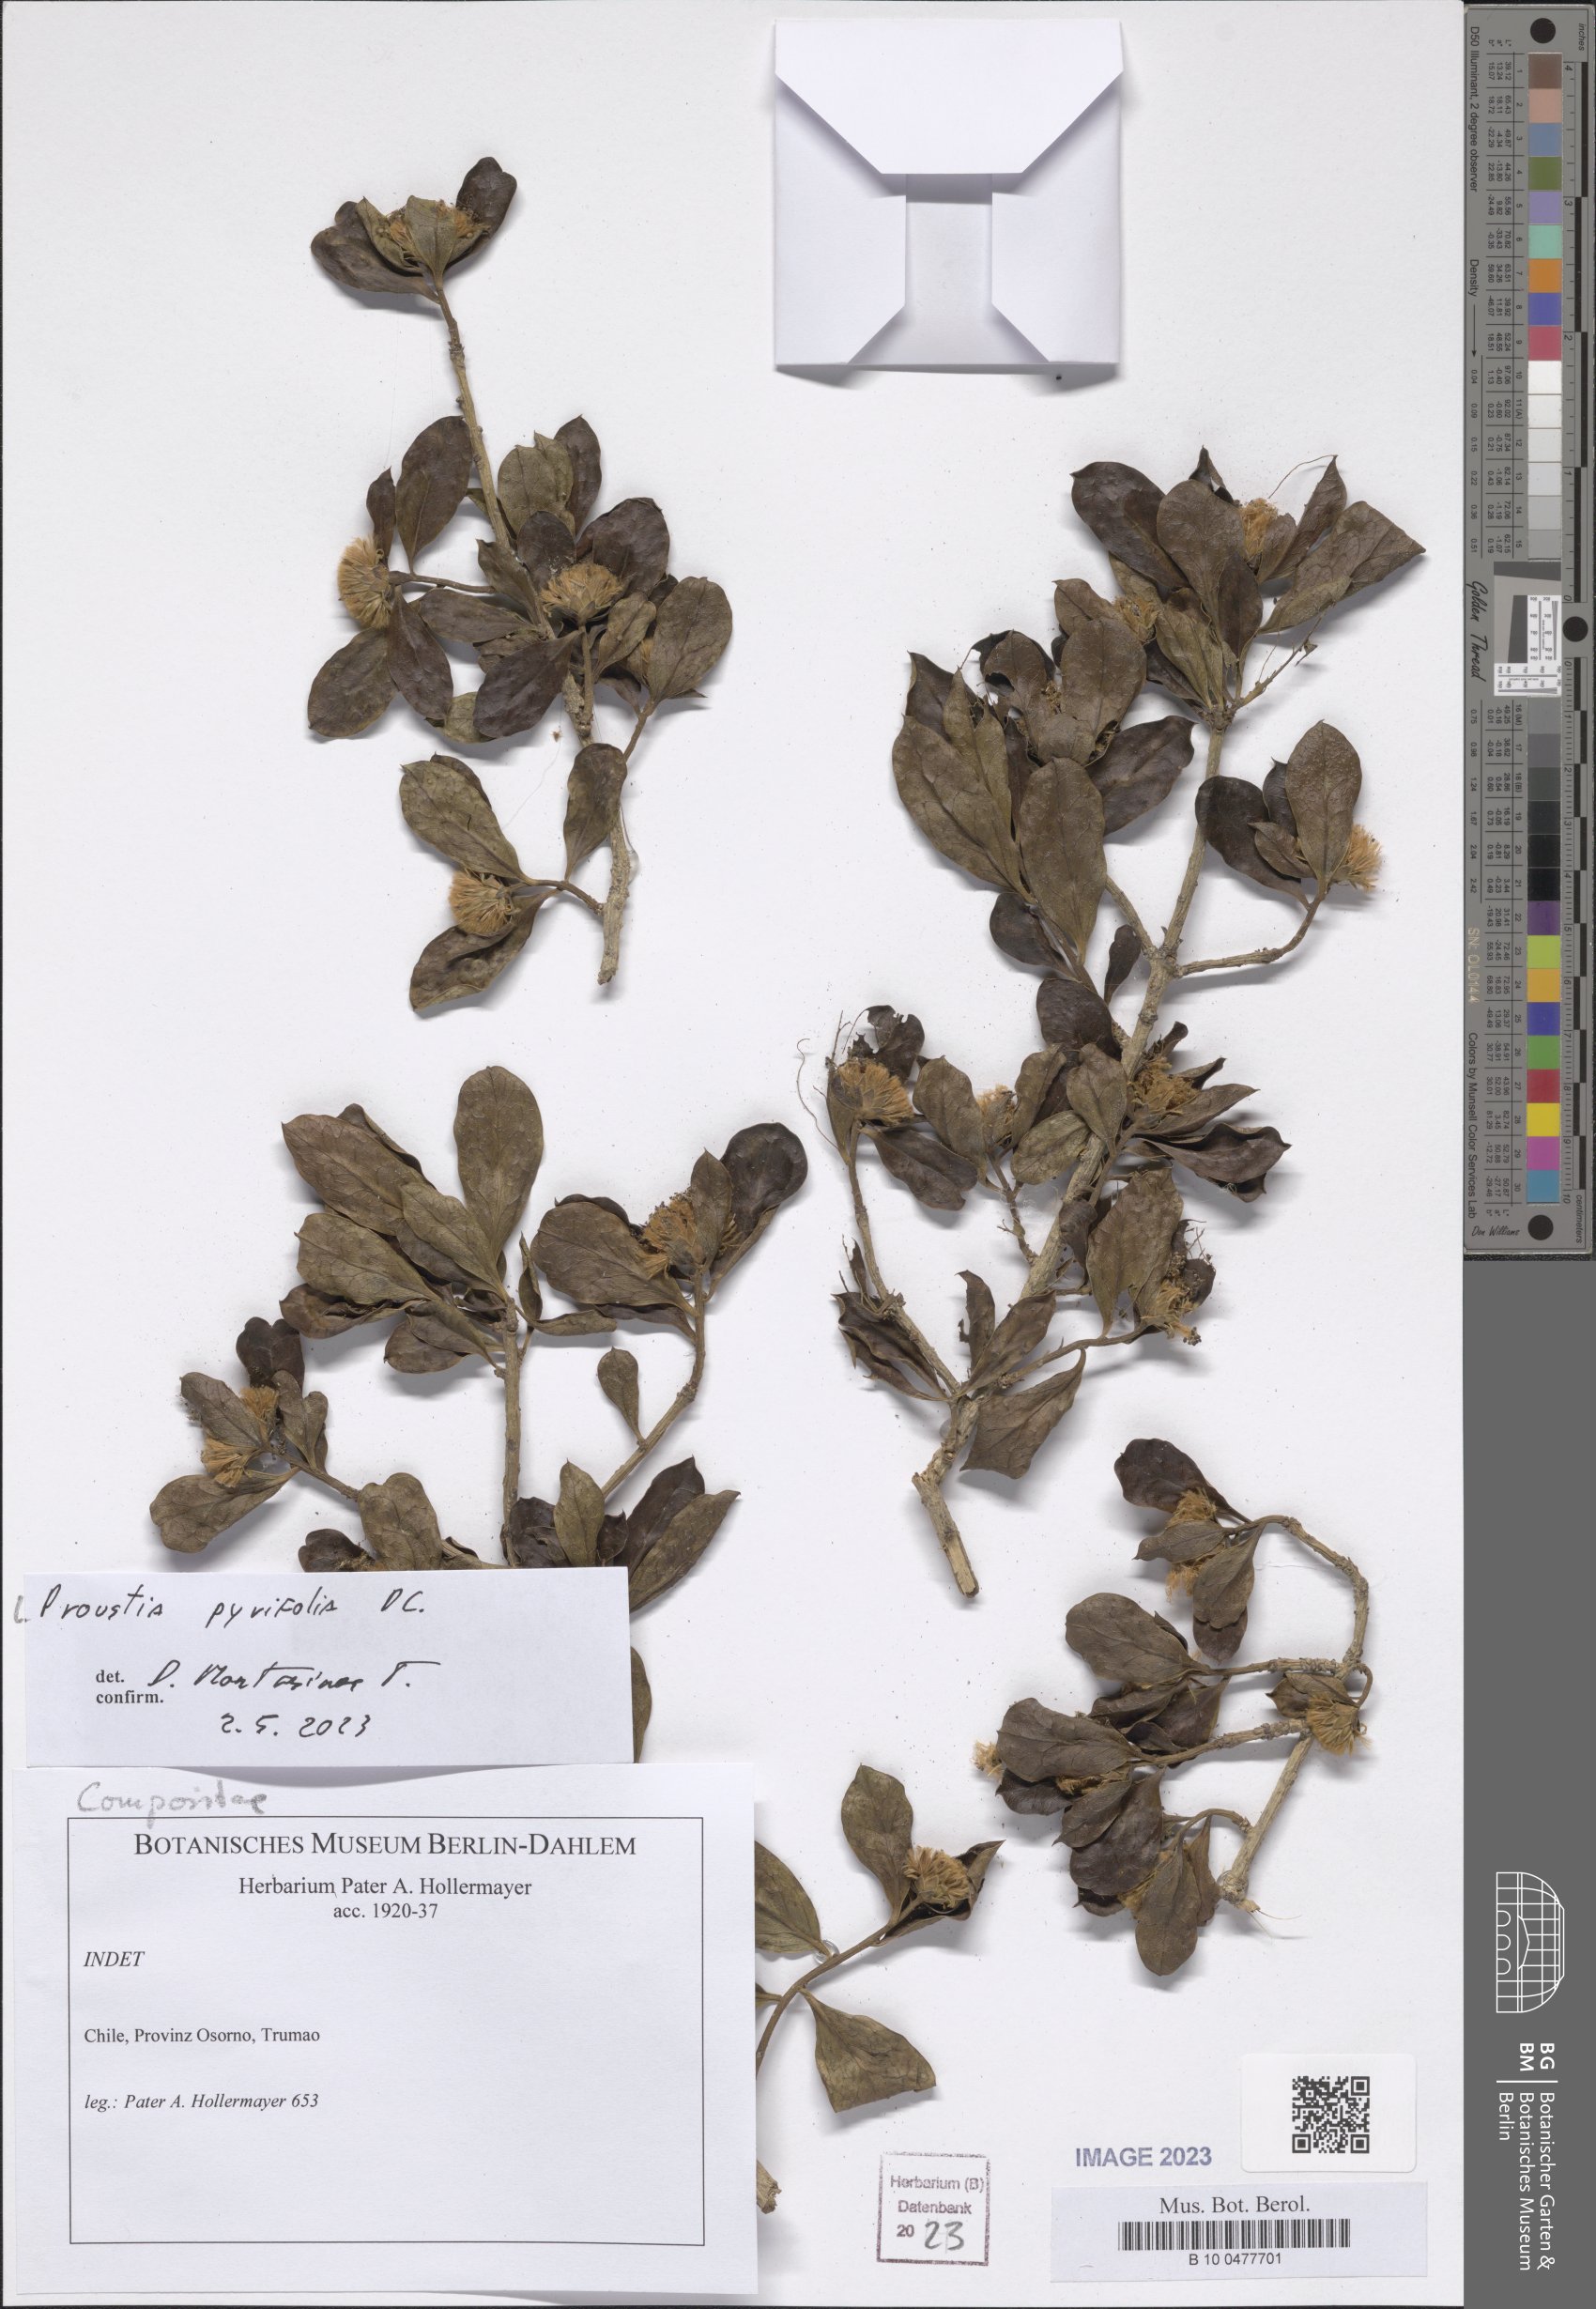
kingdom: Plantae
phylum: Tracheophyta
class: Magnoliopsida
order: Asterales
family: Asteraceae
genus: Proustia
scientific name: Proustia pyrifolia
